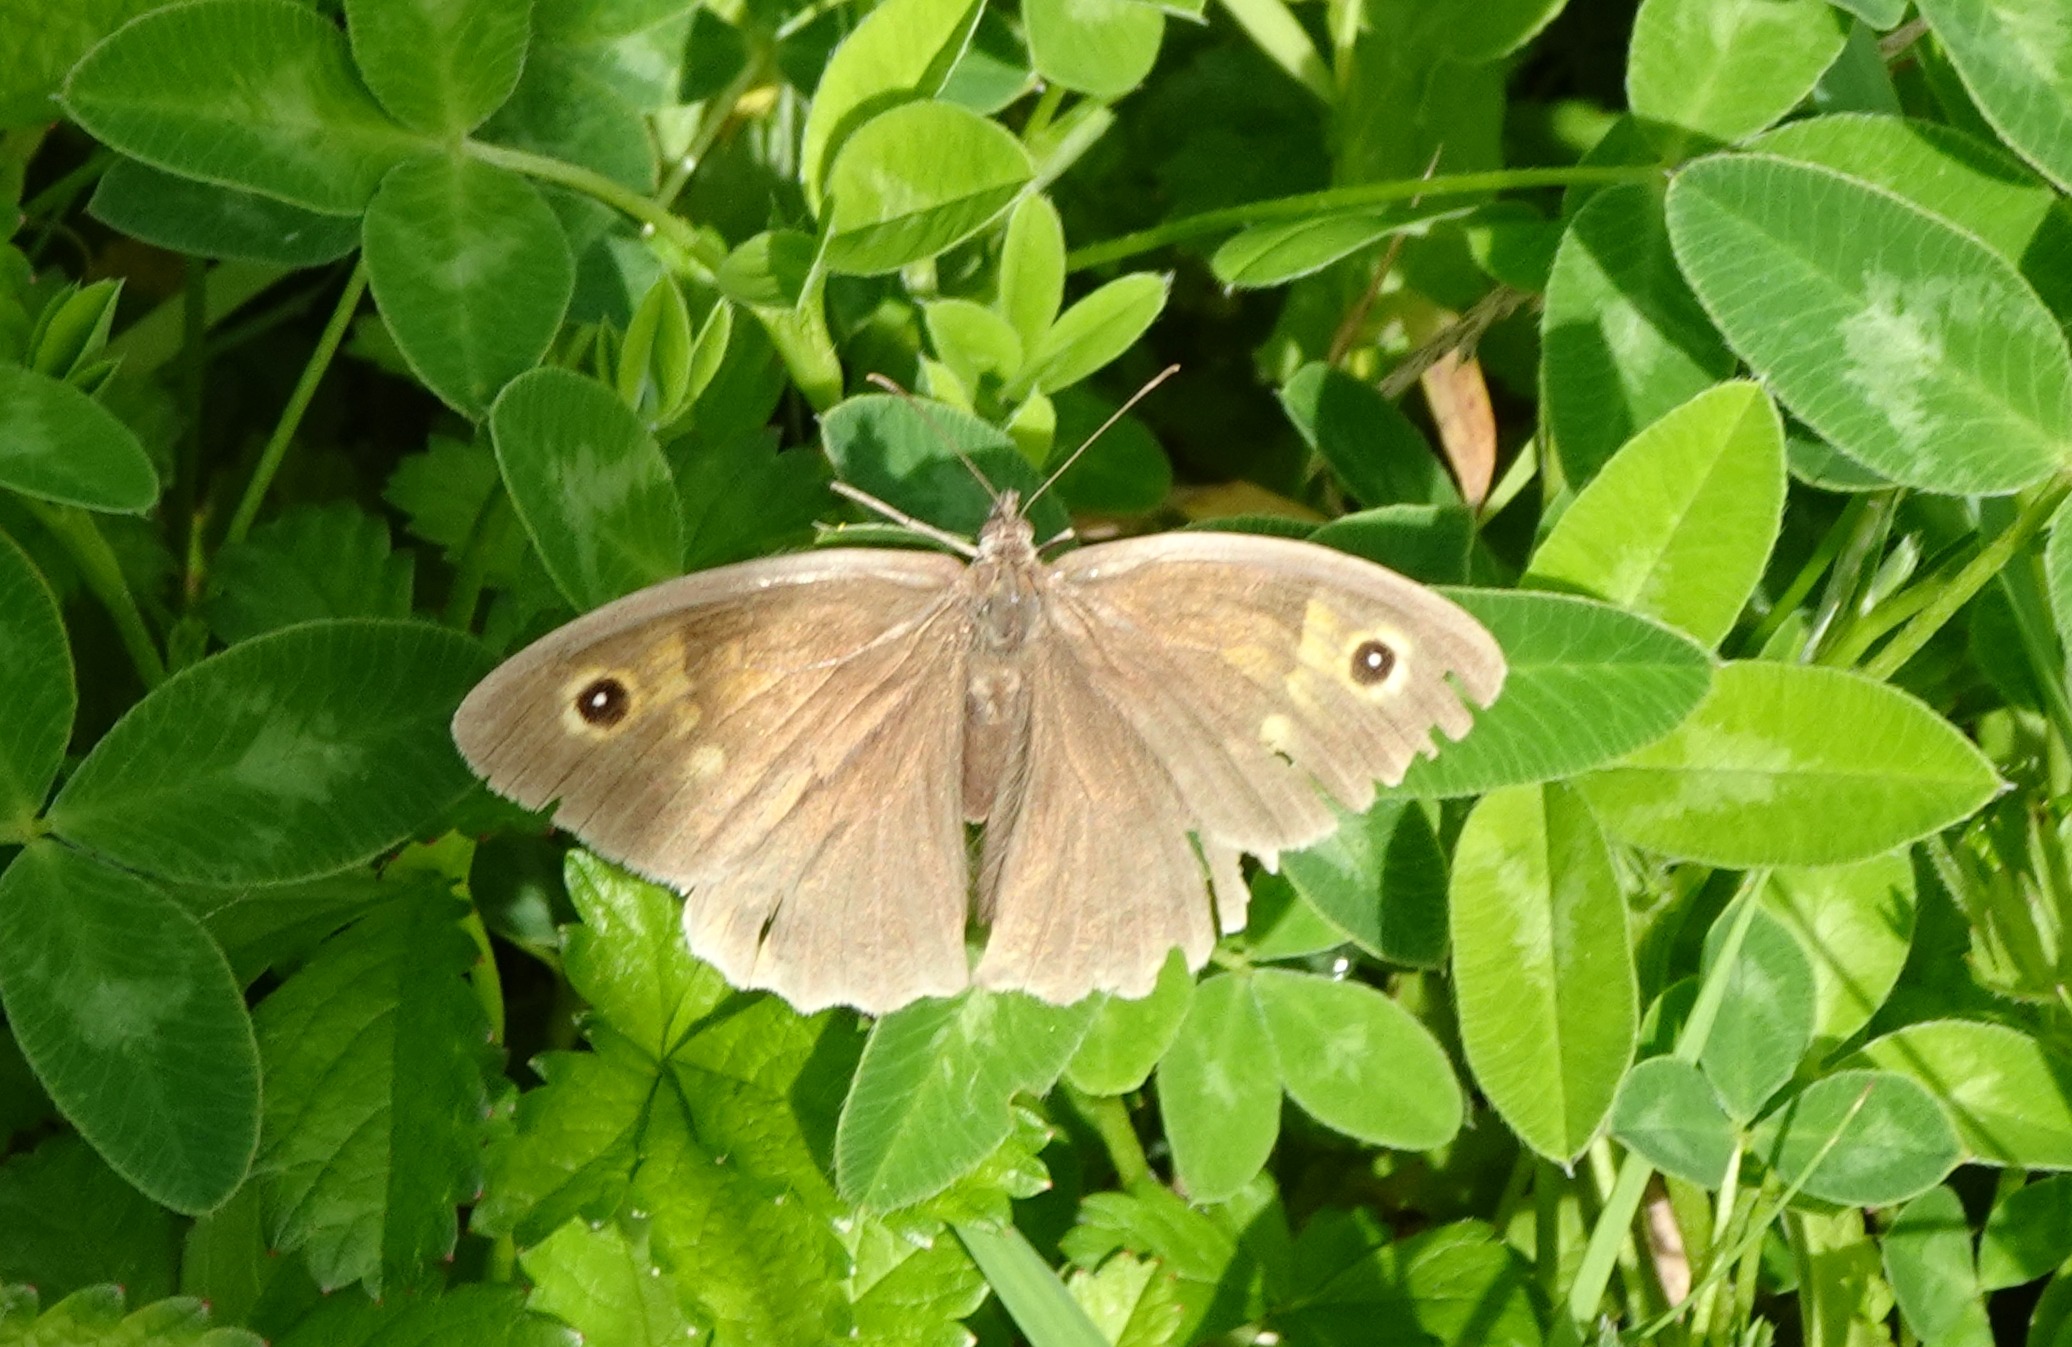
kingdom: Animalia
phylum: Arthropoda
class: Insecta
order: Lepidoptera
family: Nymphalidae
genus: Maniola
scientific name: Maniola jurtina
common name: Græsrandøje
